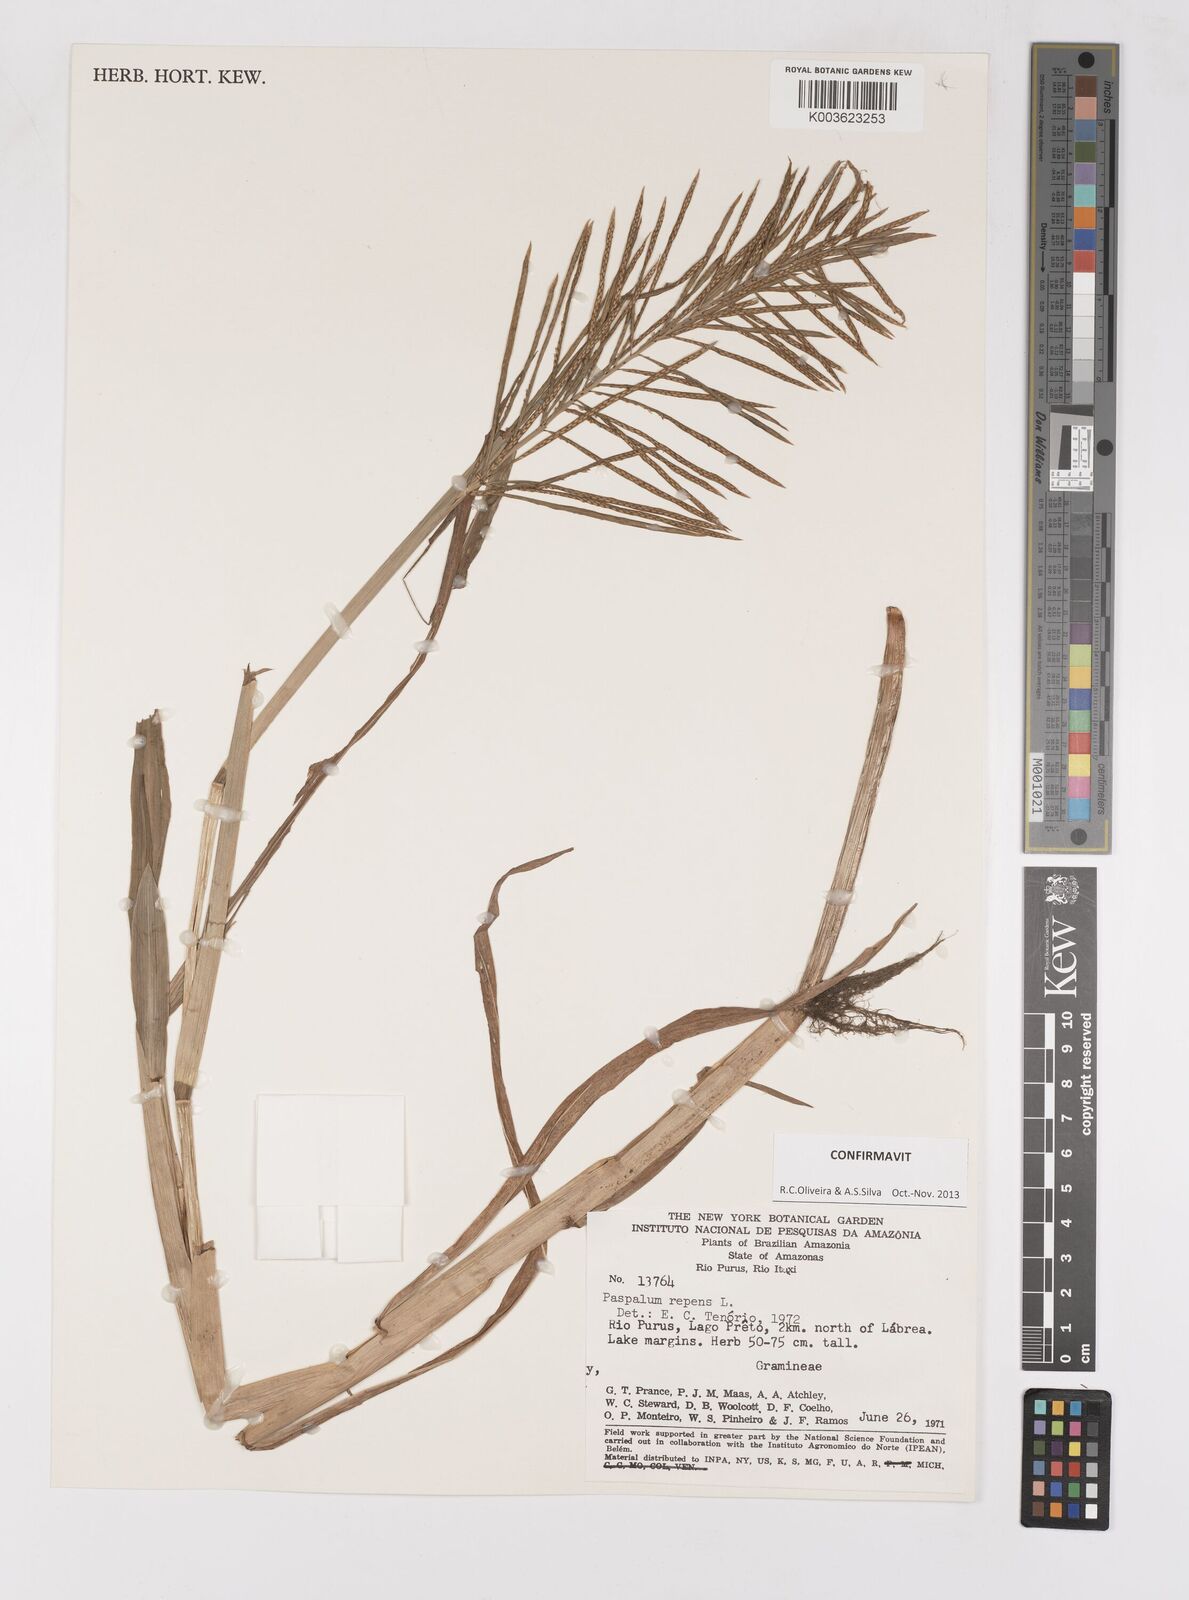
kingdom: Plantae
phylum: Tracheophyta
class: Liliopsida
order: Poales
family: Poaceae
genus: Paspalum
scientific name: Paspalum repens
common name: Water paspalum
